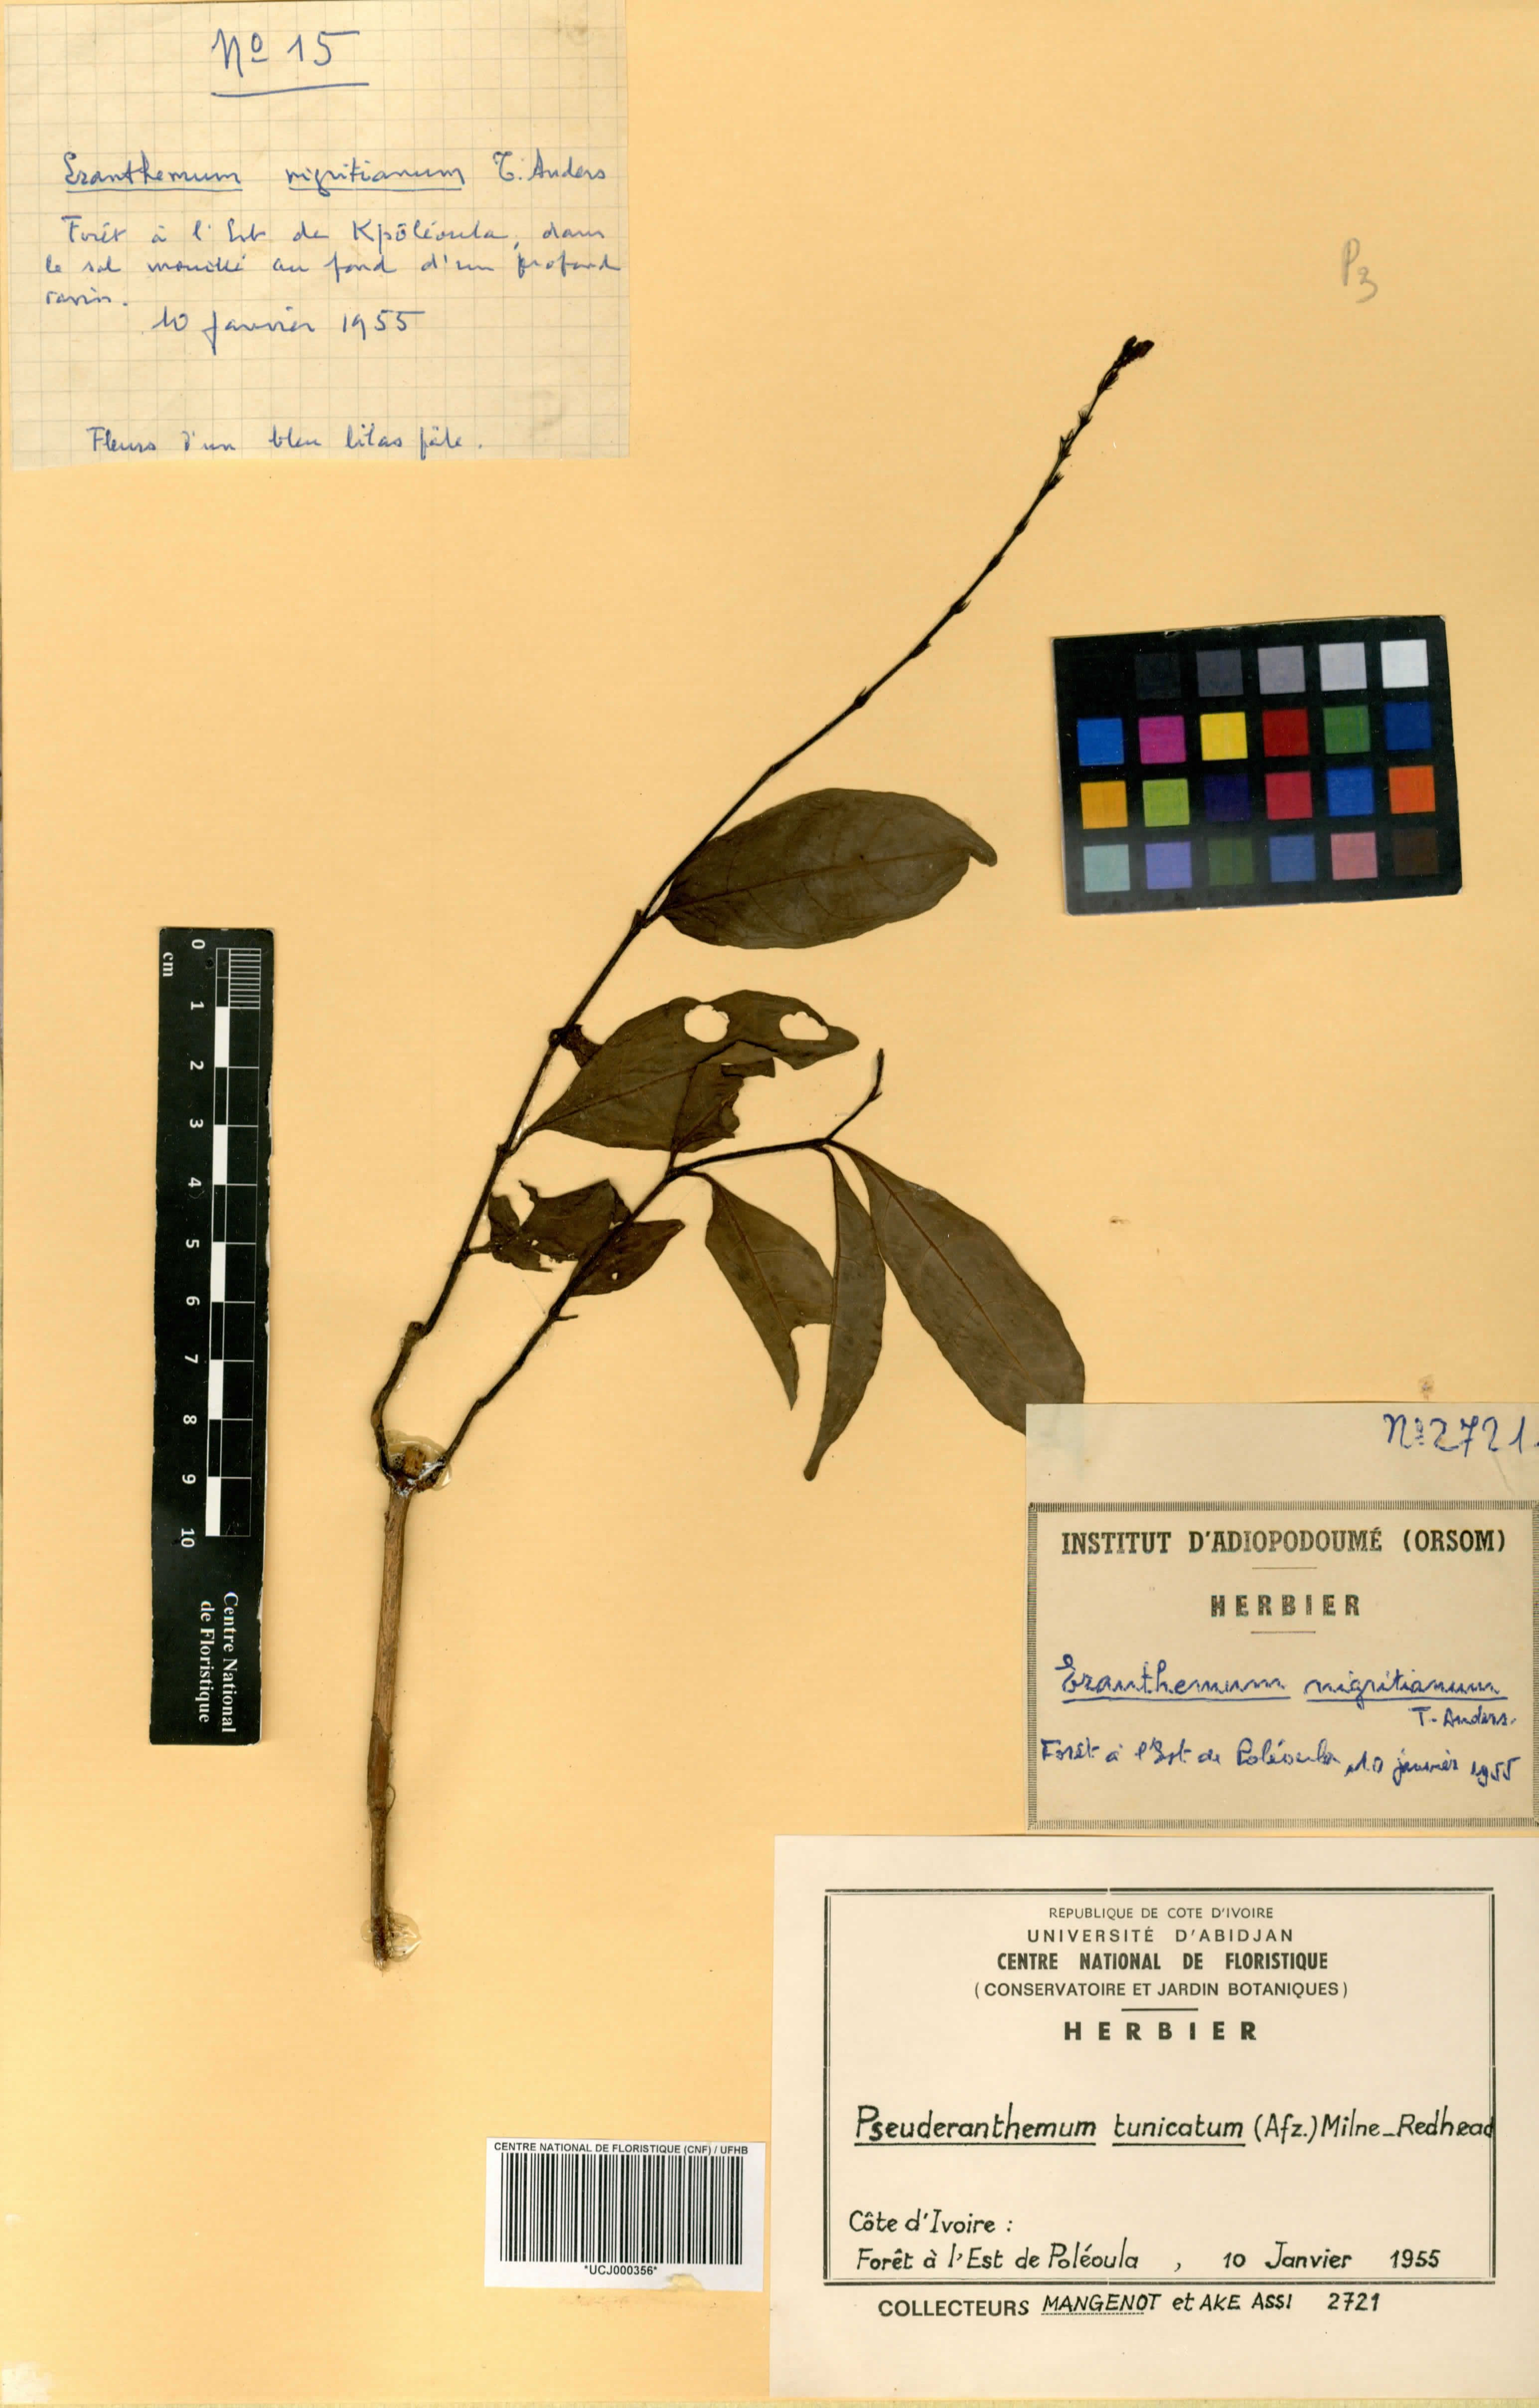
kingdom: Plantae
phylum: Tracheophyta
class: Magnoliopsida
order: Lamiales
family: Acanthaceae
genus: Pseuderanthemum
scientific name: Pseuderanthemum tunicatum
